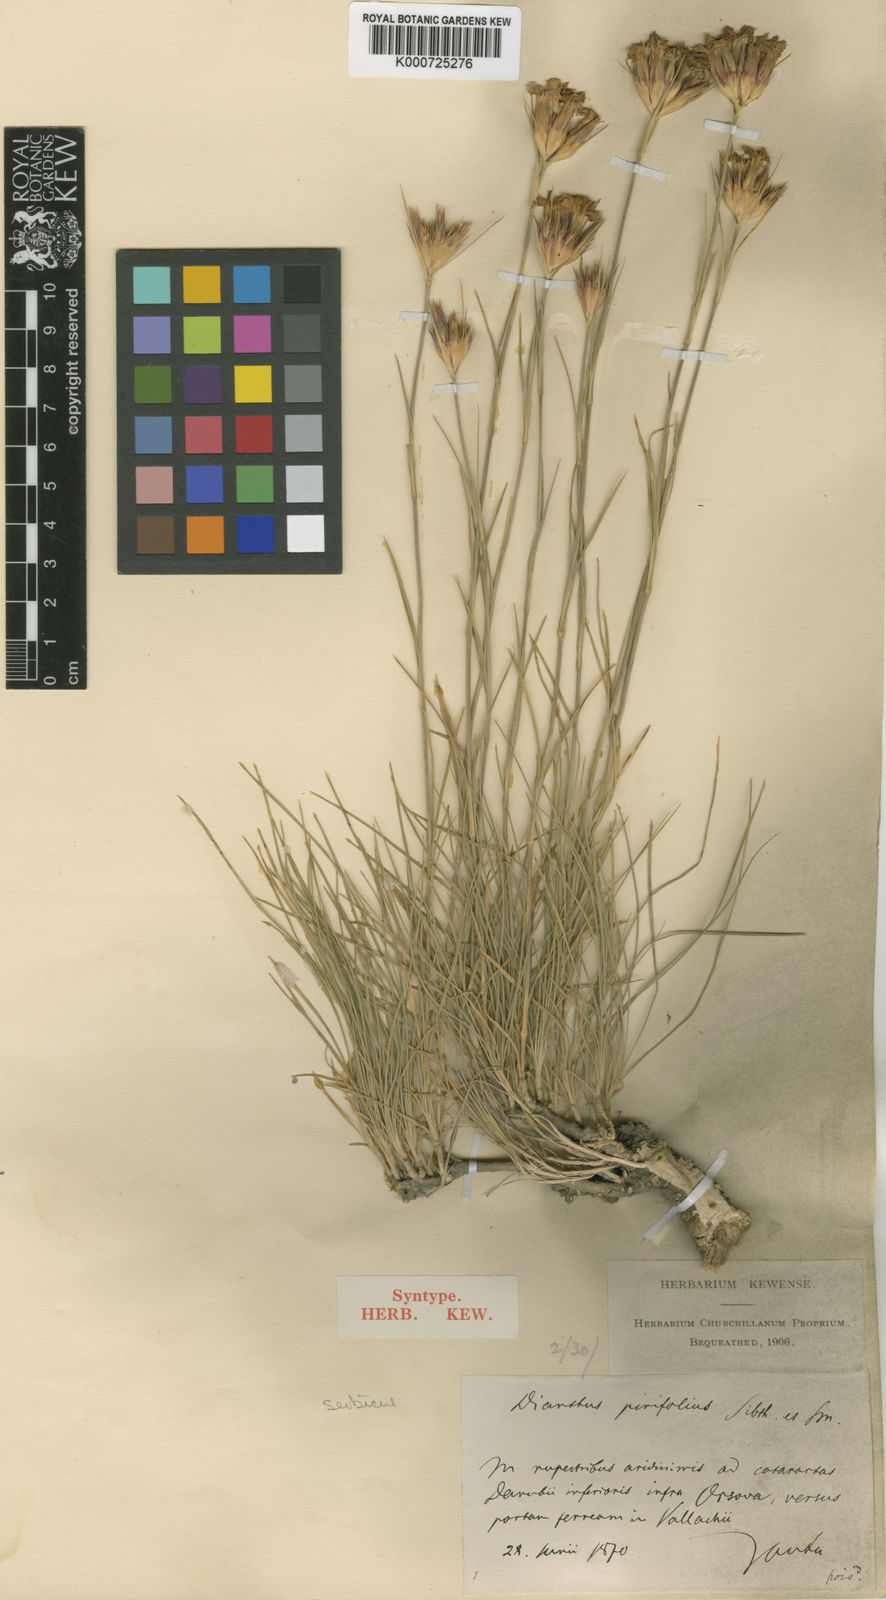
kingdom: Plantae
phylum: Tracheophyta
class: Magnoliopsida
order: Caryophyllales
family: Caryophyllaceae
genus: Dianthus
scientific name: Dianthus pinifolius
